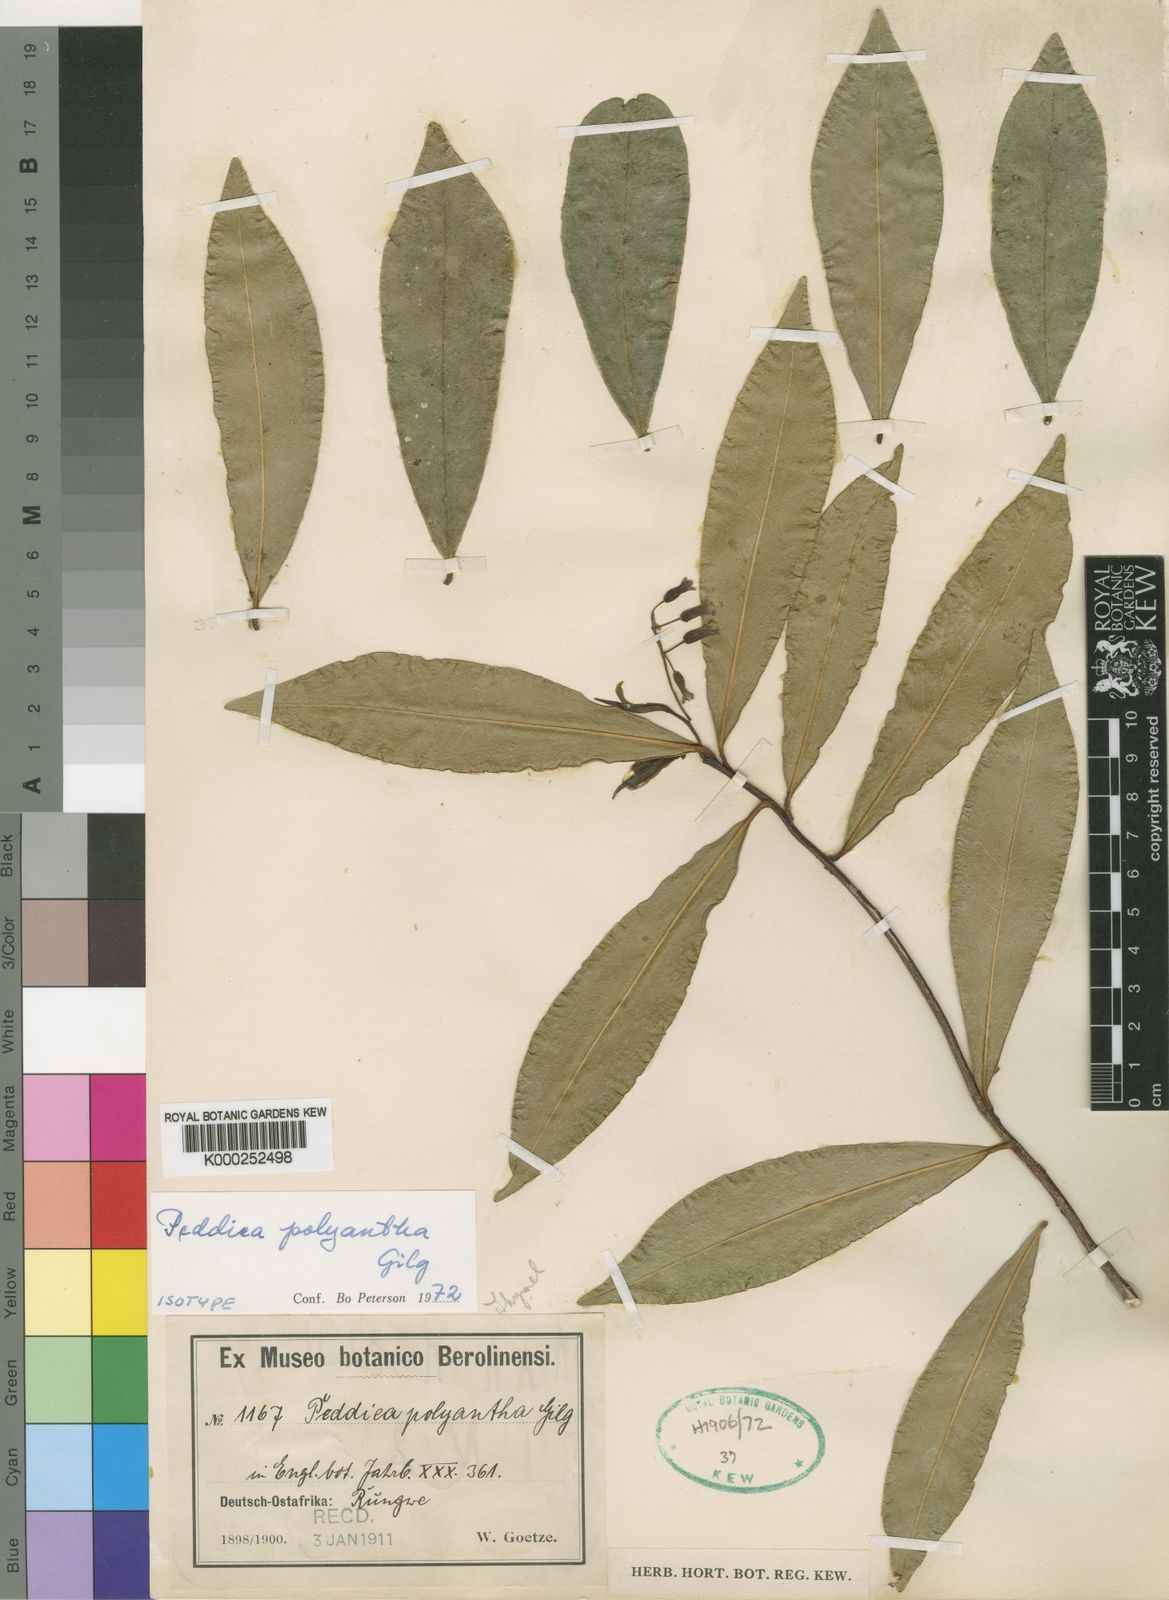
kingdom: Plantae
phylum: Tracheophyta
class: Magnoliopsida
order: Malvales
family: Thymelaeaceae
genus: Peddiea
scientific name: Peddiea polyantha
